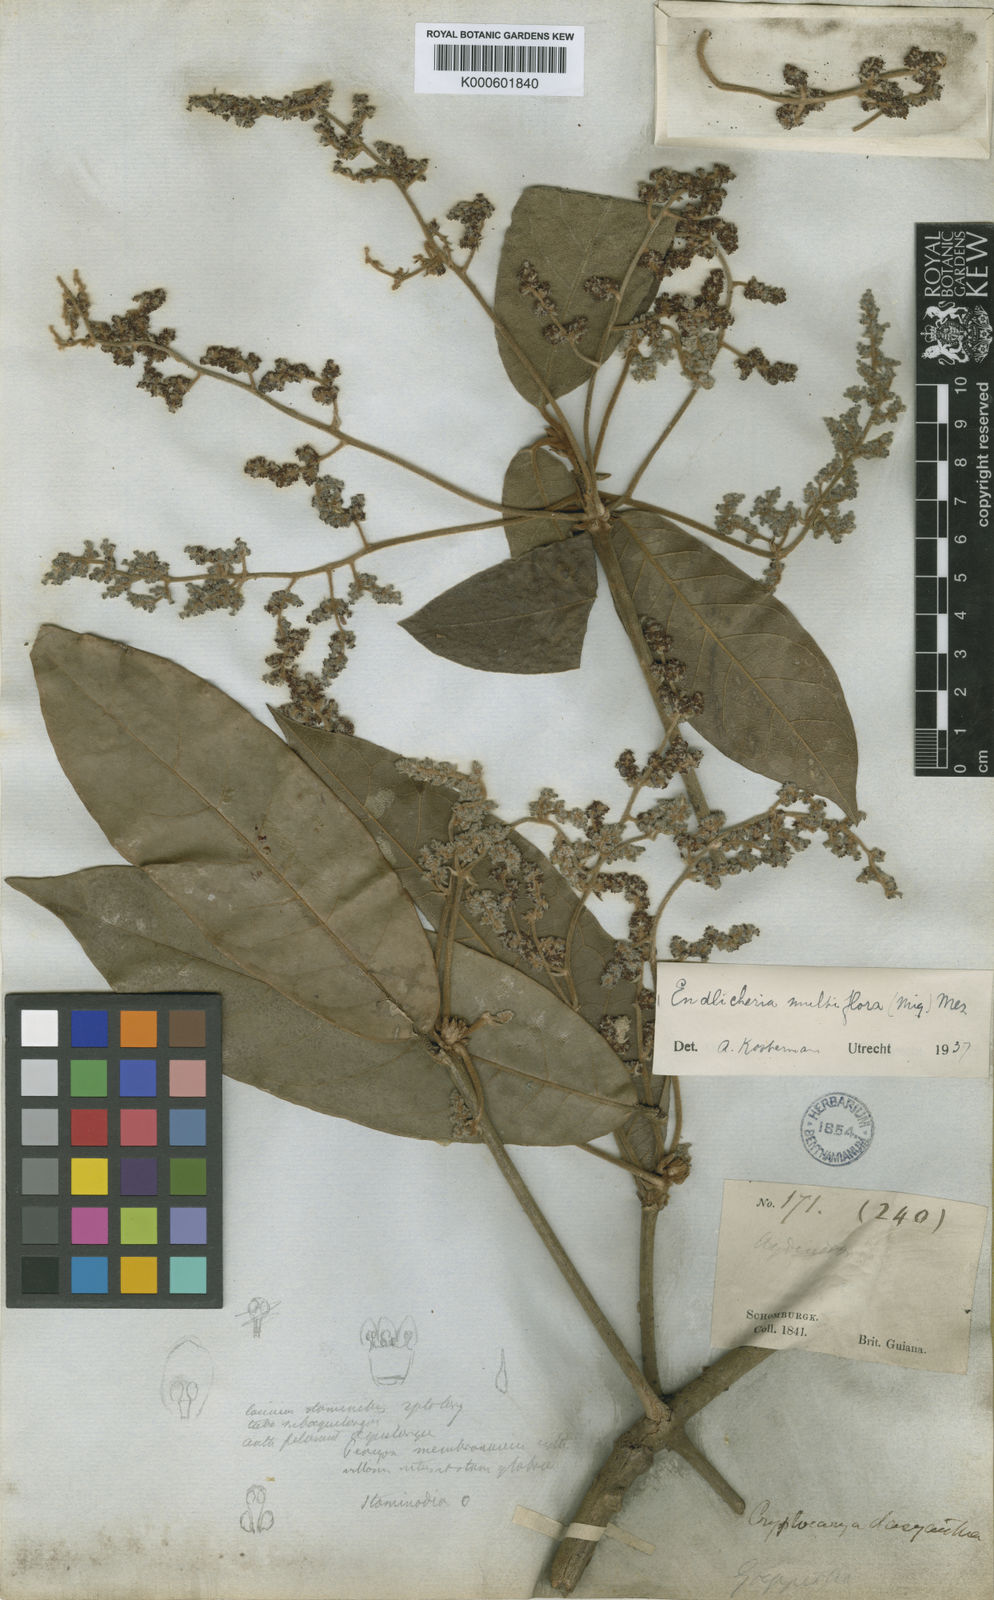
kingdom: Plantae
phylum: Tracheophyta
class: Magnoliopsida
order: Laurales
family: Lauraceae
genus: Endlicheria
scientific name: Endlicheria multiflora
